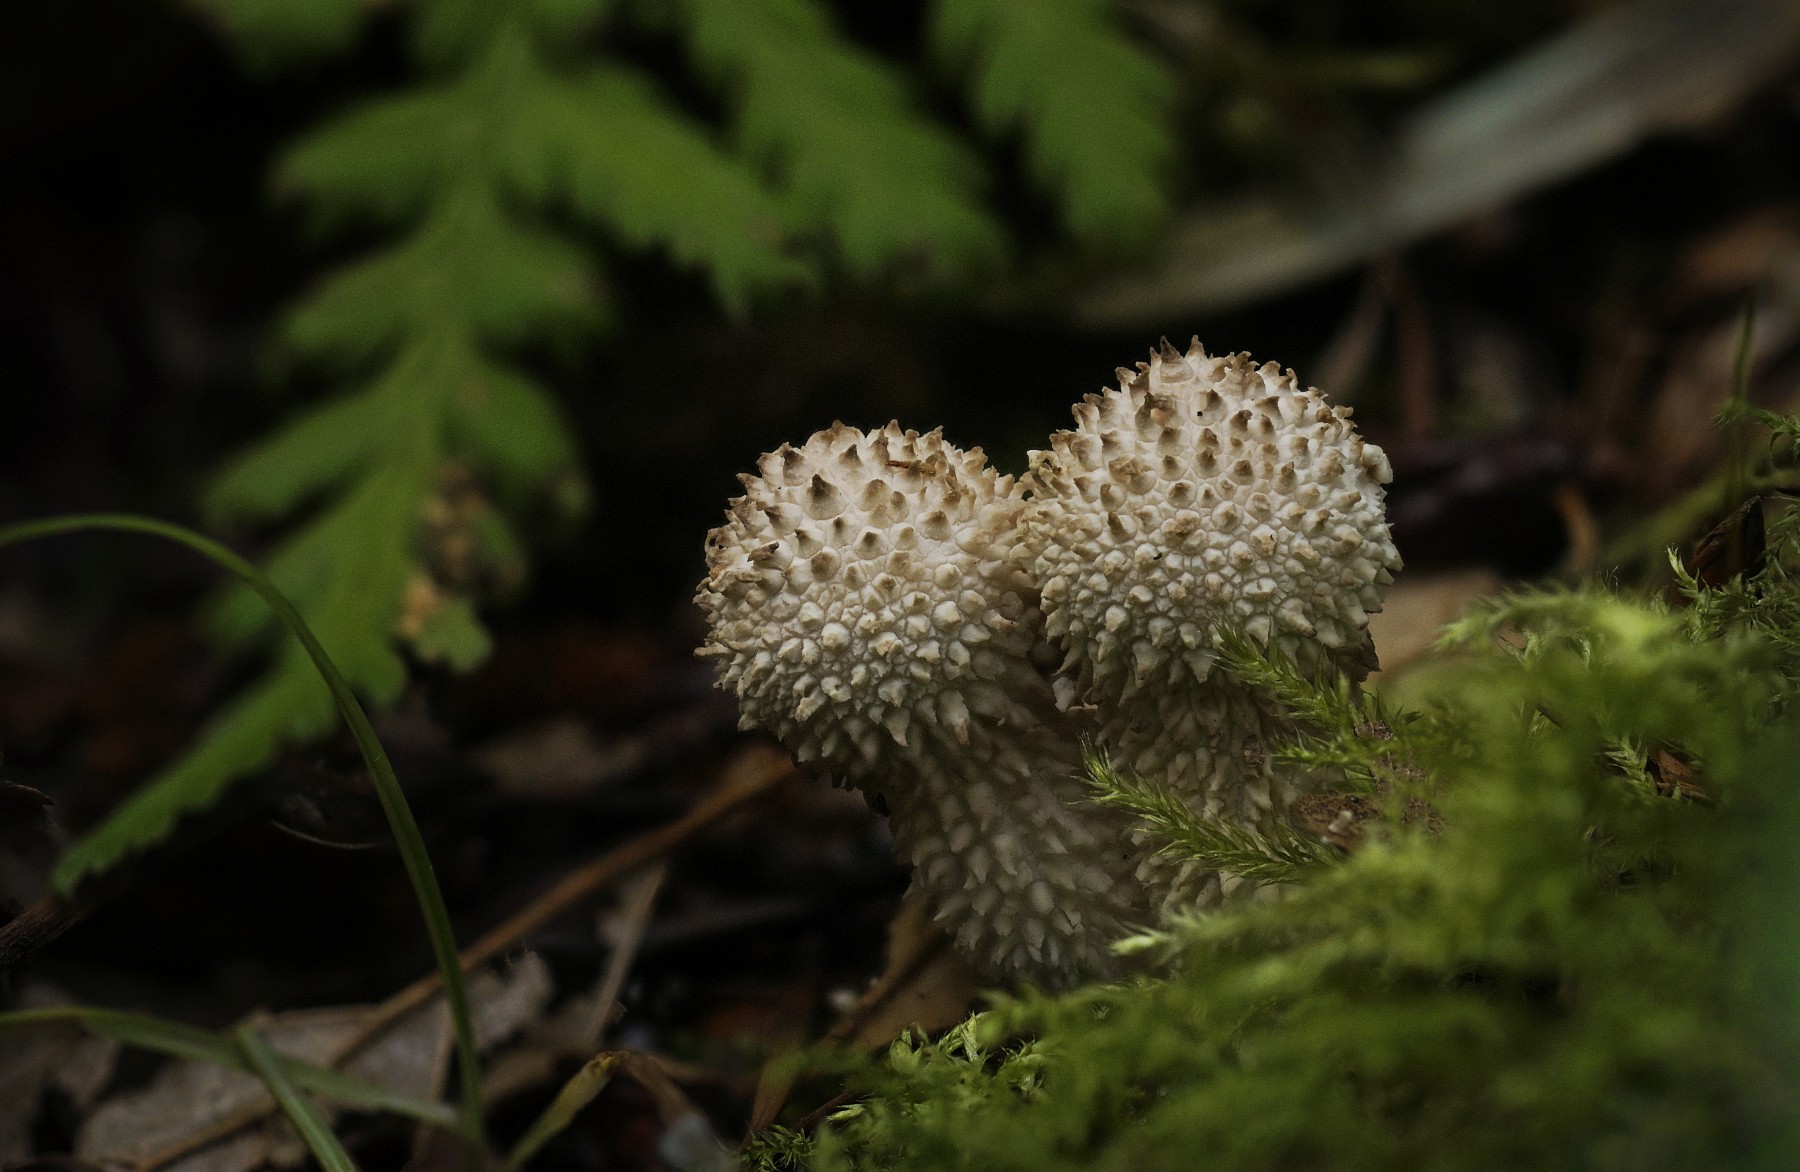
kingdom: Fungi
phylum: Basidiomycota
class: Agaricomycetes
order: Agaricales
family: Lycoperdaceae
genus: Lycoperdon
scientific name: Lycoperdon perlatum
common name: krystal-støvbold
